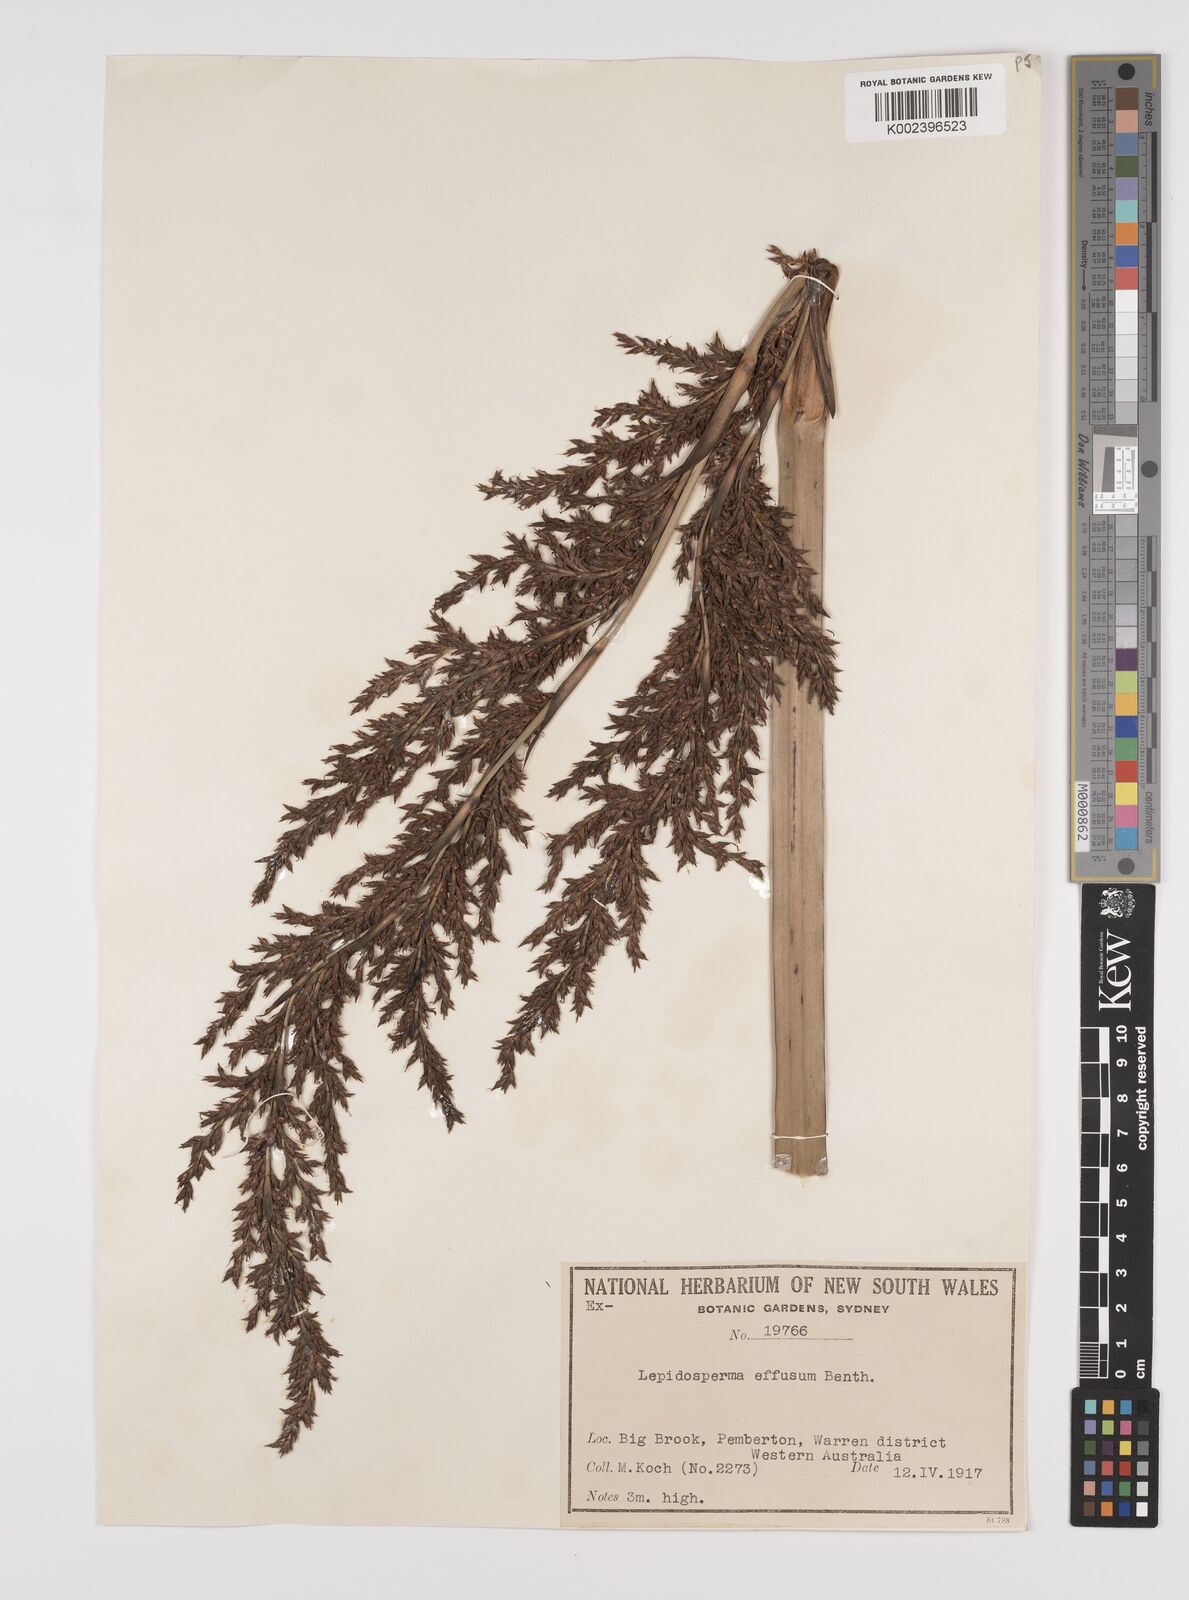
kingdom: Plantae
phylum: Tracheophyta
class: Liliopsida
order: Poales
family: Cyperaceae
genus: Lepidosperma
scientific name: Lepidosperma effusum
